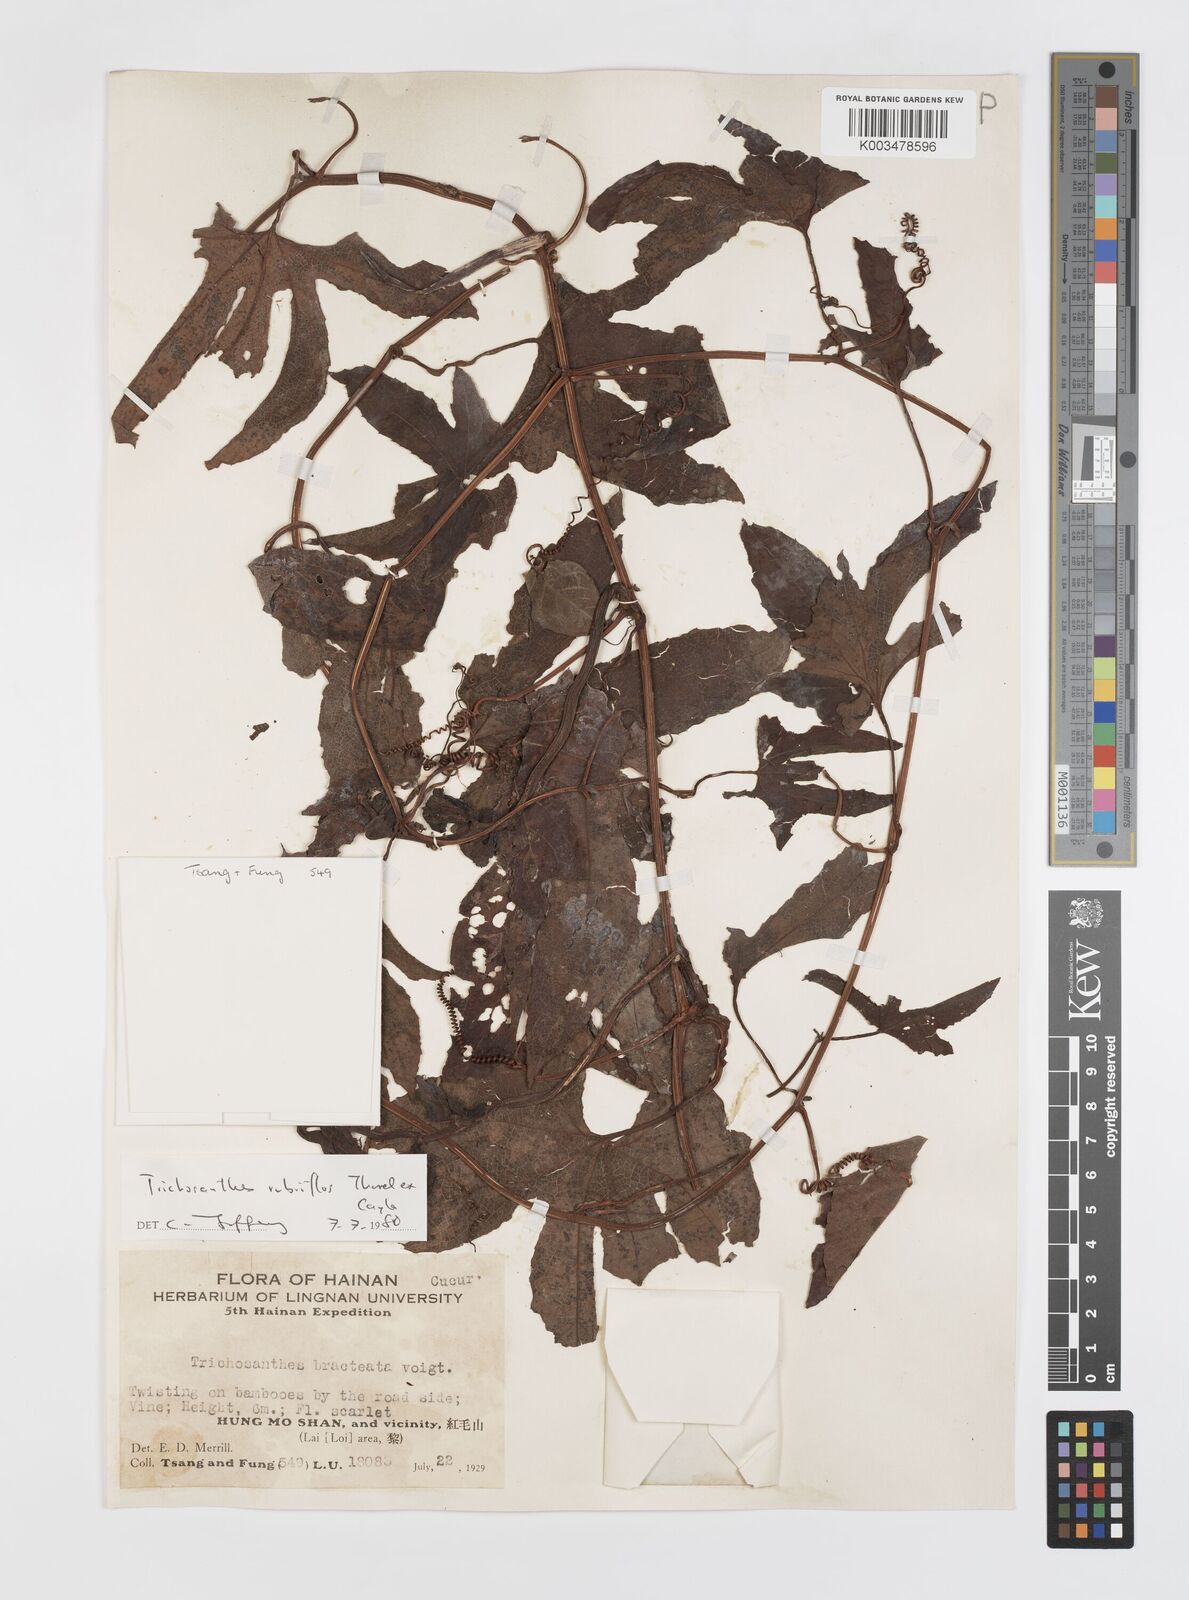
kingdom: Plantae
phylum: Tracheophyta
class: Magnoliopsida
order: Cucurbitales
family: Cucurbitaceae
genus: Trichosanthes
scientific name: Trichosanthes rubriflos
